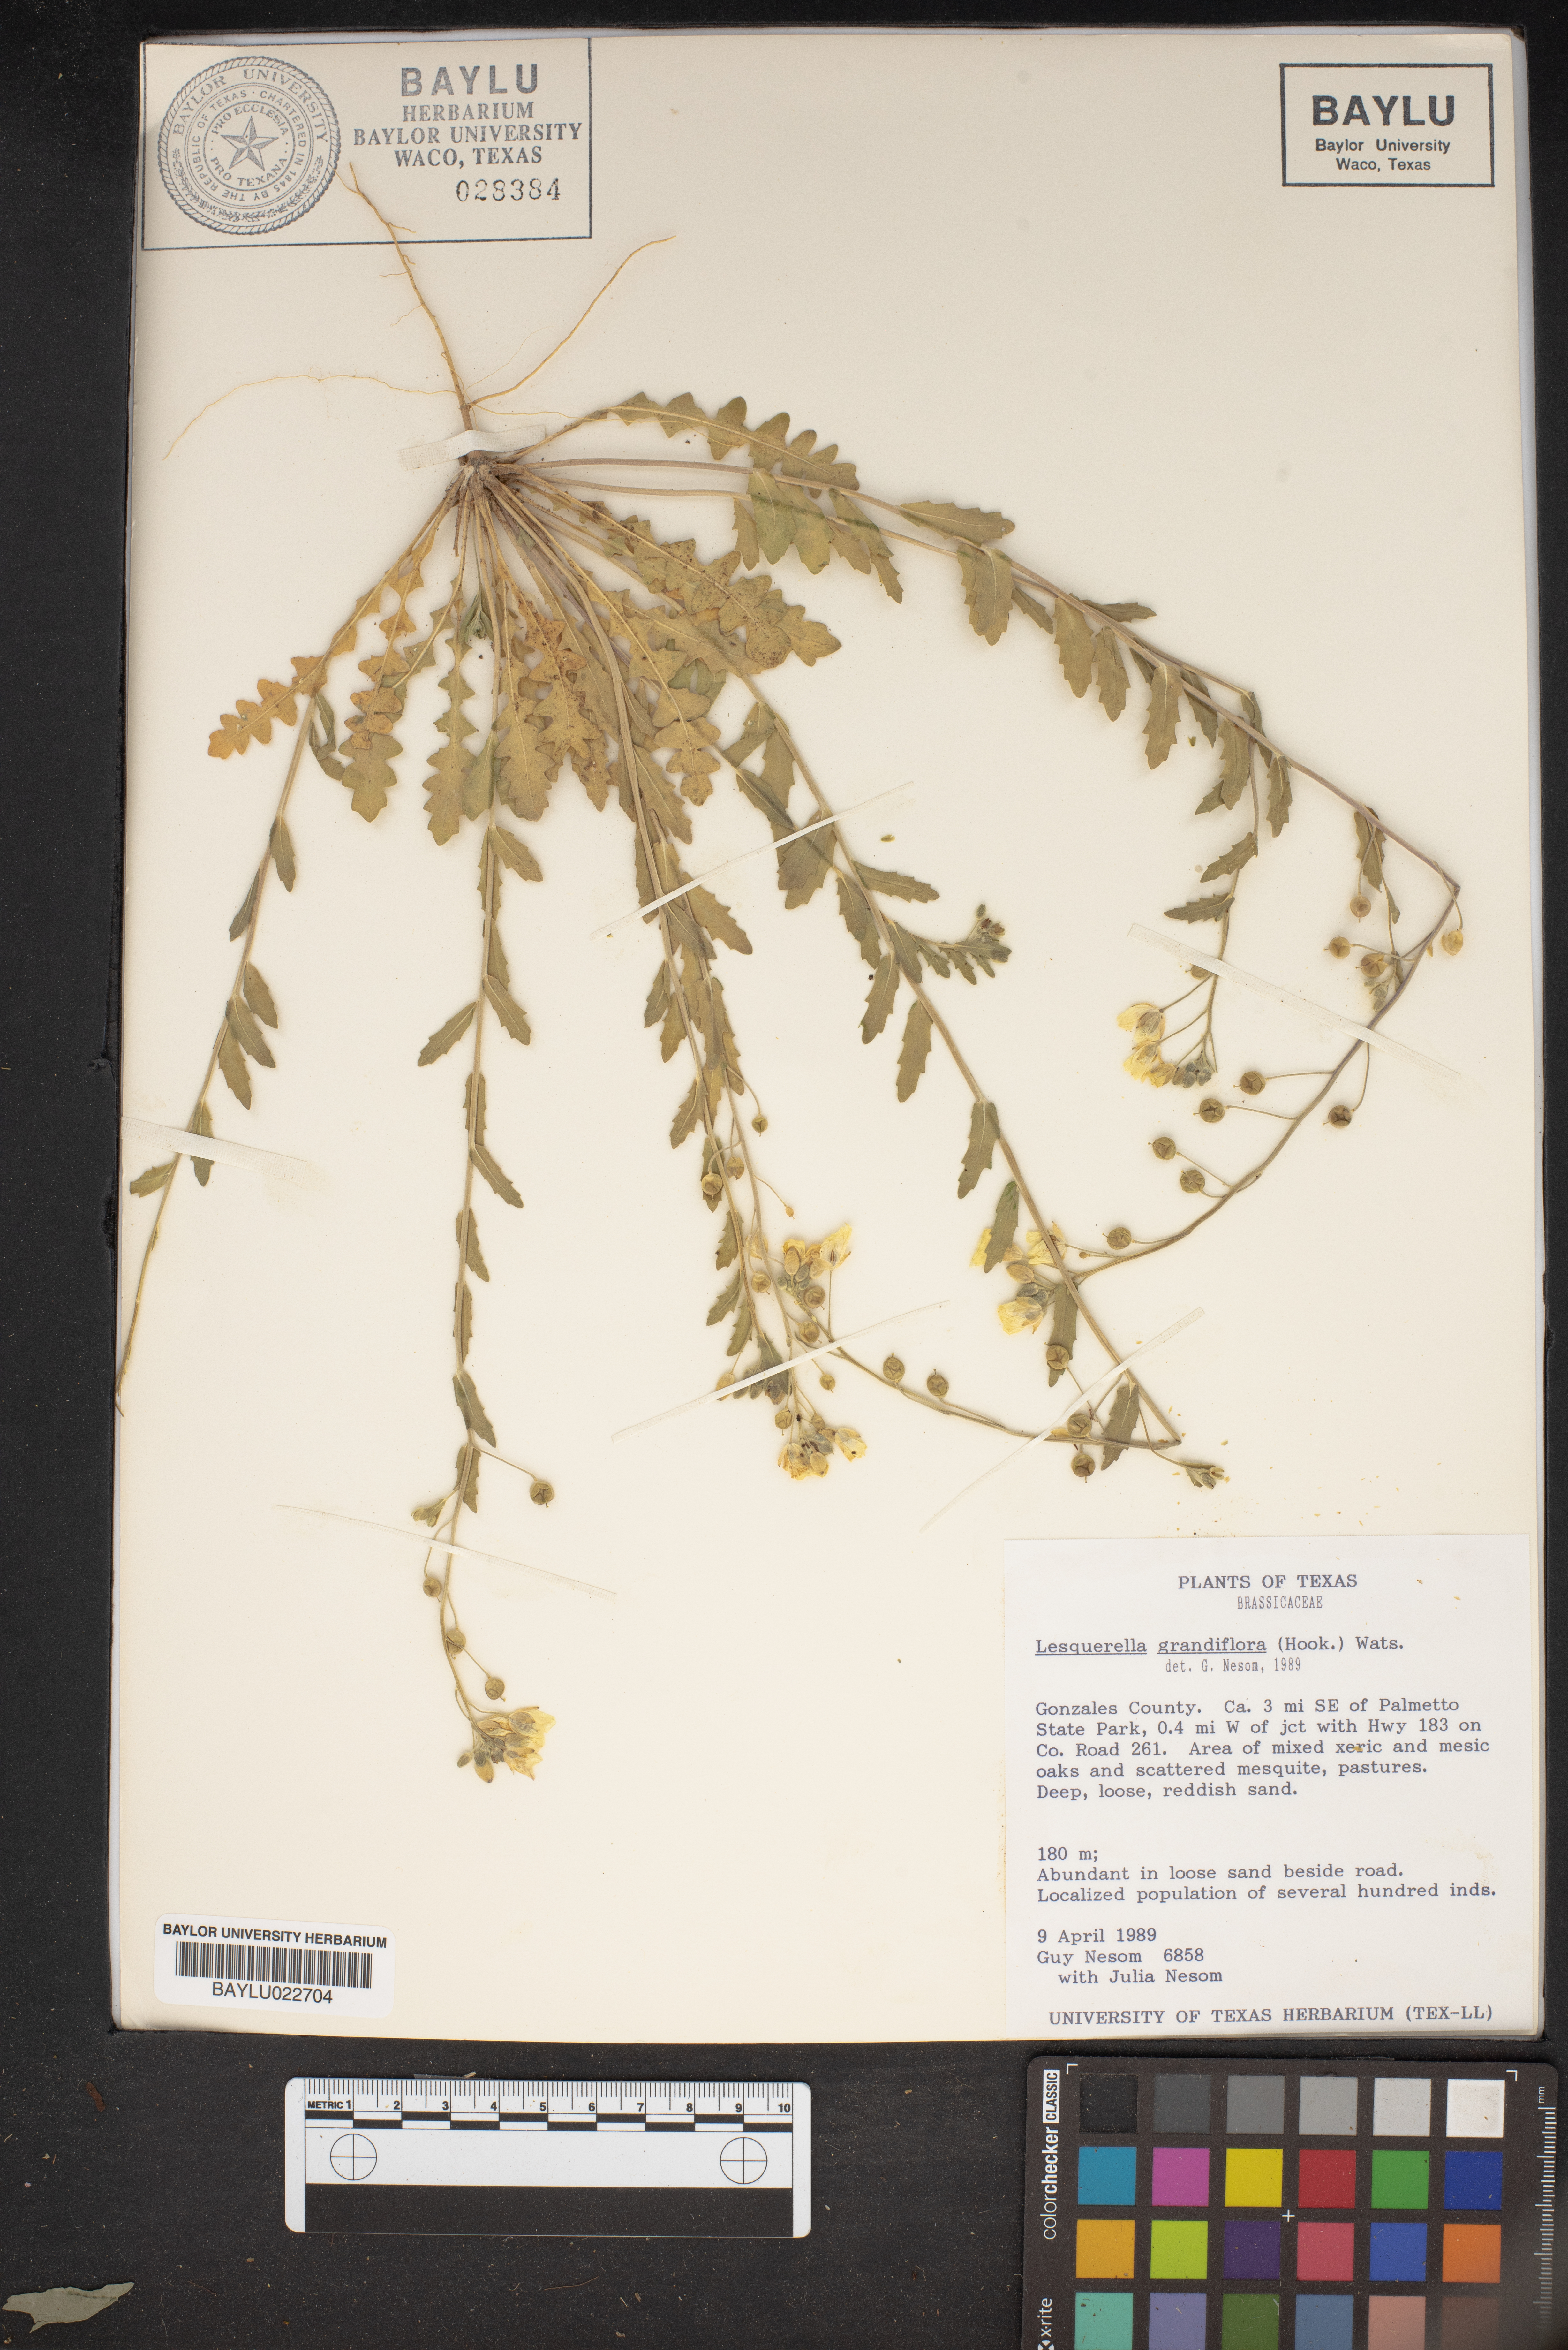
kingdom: Plantae
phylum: Tracheophyta
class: Magnoliopsida
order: Brassicales
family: Brassicaceae
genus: Paysonia
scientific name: Paysonia grandiflora
